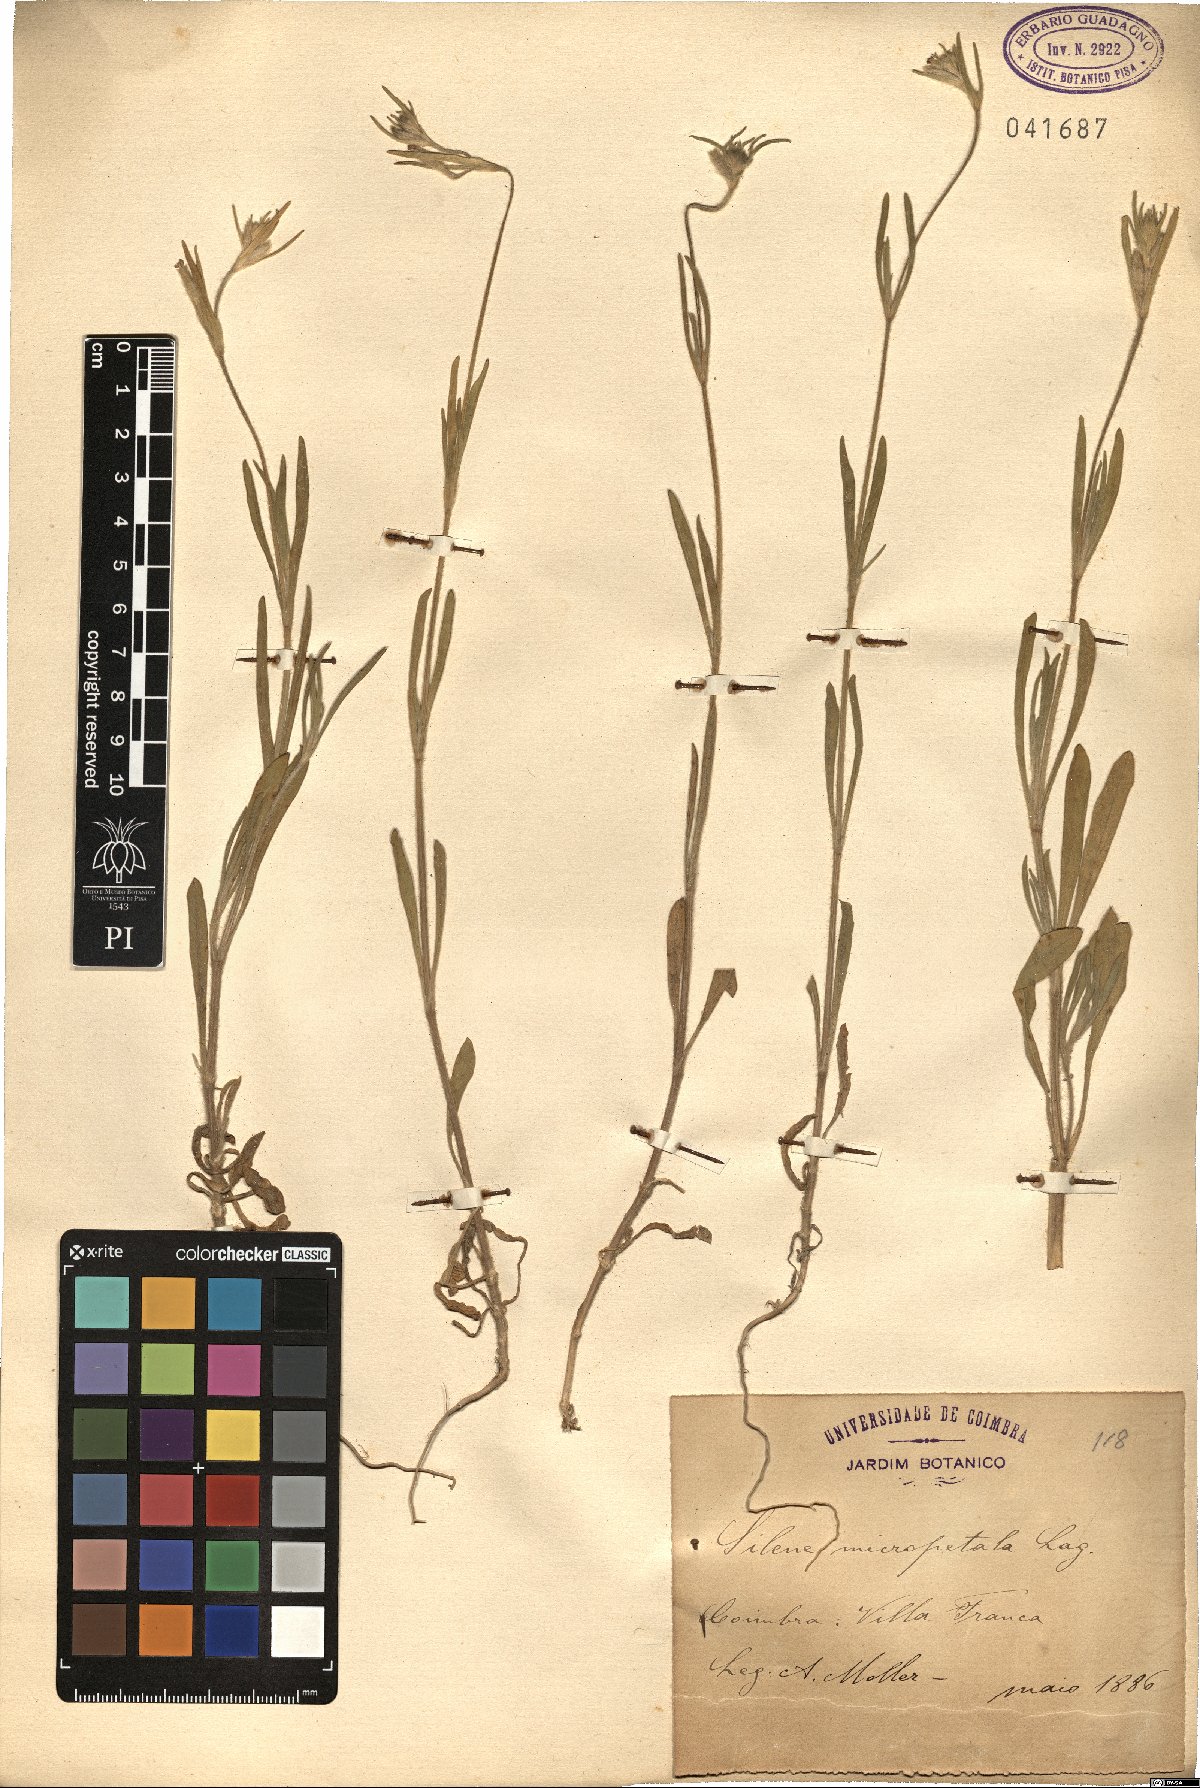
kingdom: Plantae
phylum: Tracheophyta
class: Magnoliopsida
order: Caryophyllales
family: Caryophyllaceae
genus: Silene
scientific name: Silene micropetala
